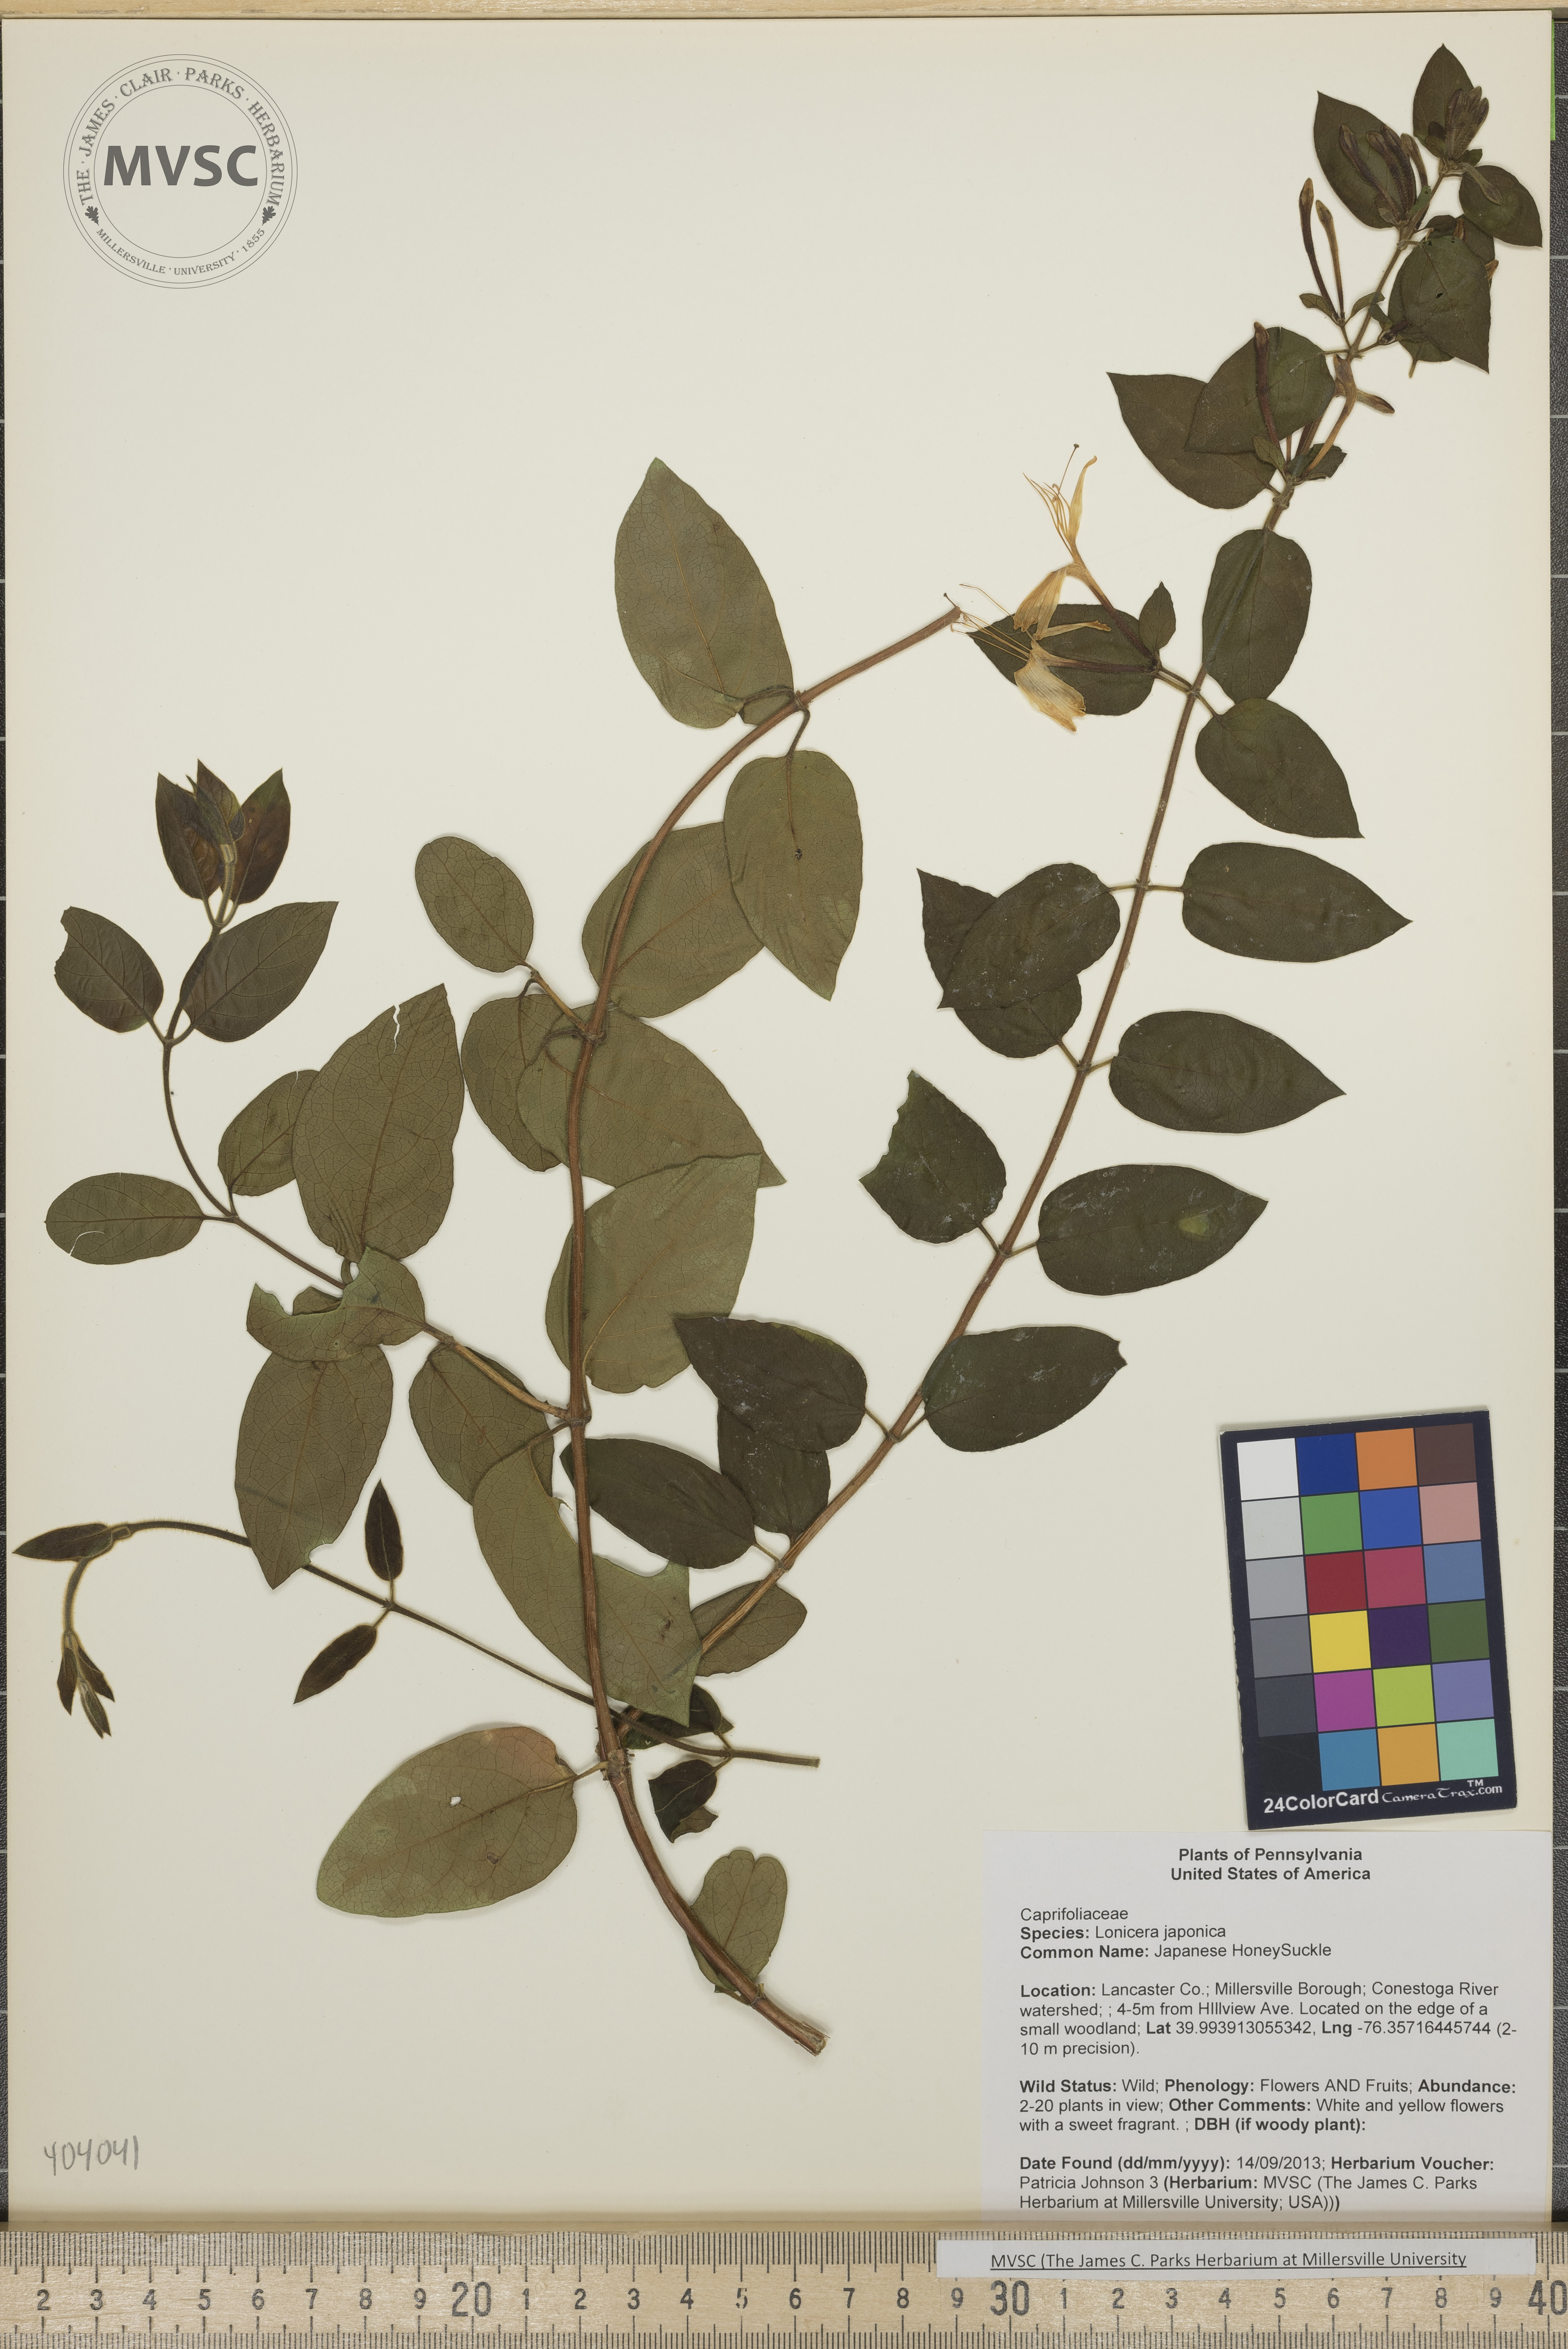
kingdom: Plantae
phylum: Tracheophyta
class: Magnoliopsida
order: Dipsacales
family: Caprifoliaceae
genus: Lonicera
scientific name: Lonicera japonica
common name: Japanese HoneySuckle
